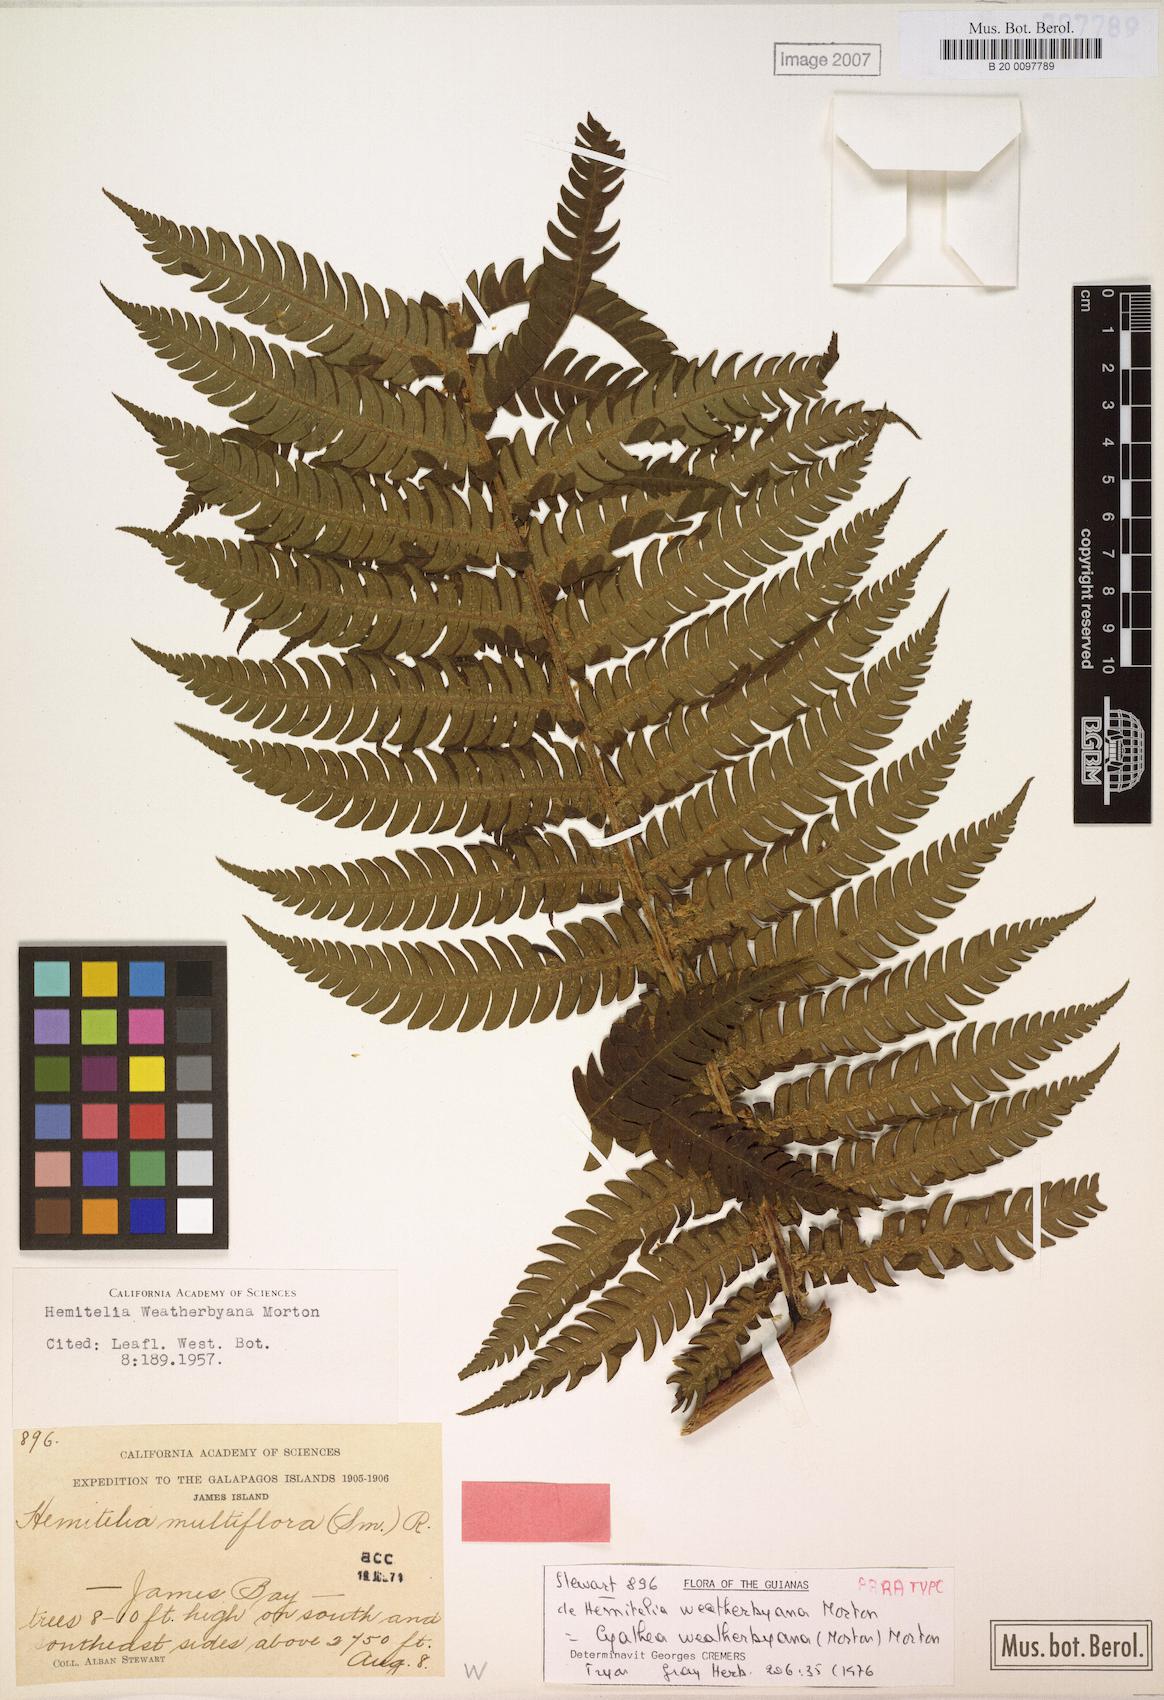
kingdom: Plantae
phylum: Tracheophyta
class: Polypodiopsida
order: Cyatheales
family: Cyatheaceae
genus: Cyathea
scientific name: Cyathea weatherbyana
